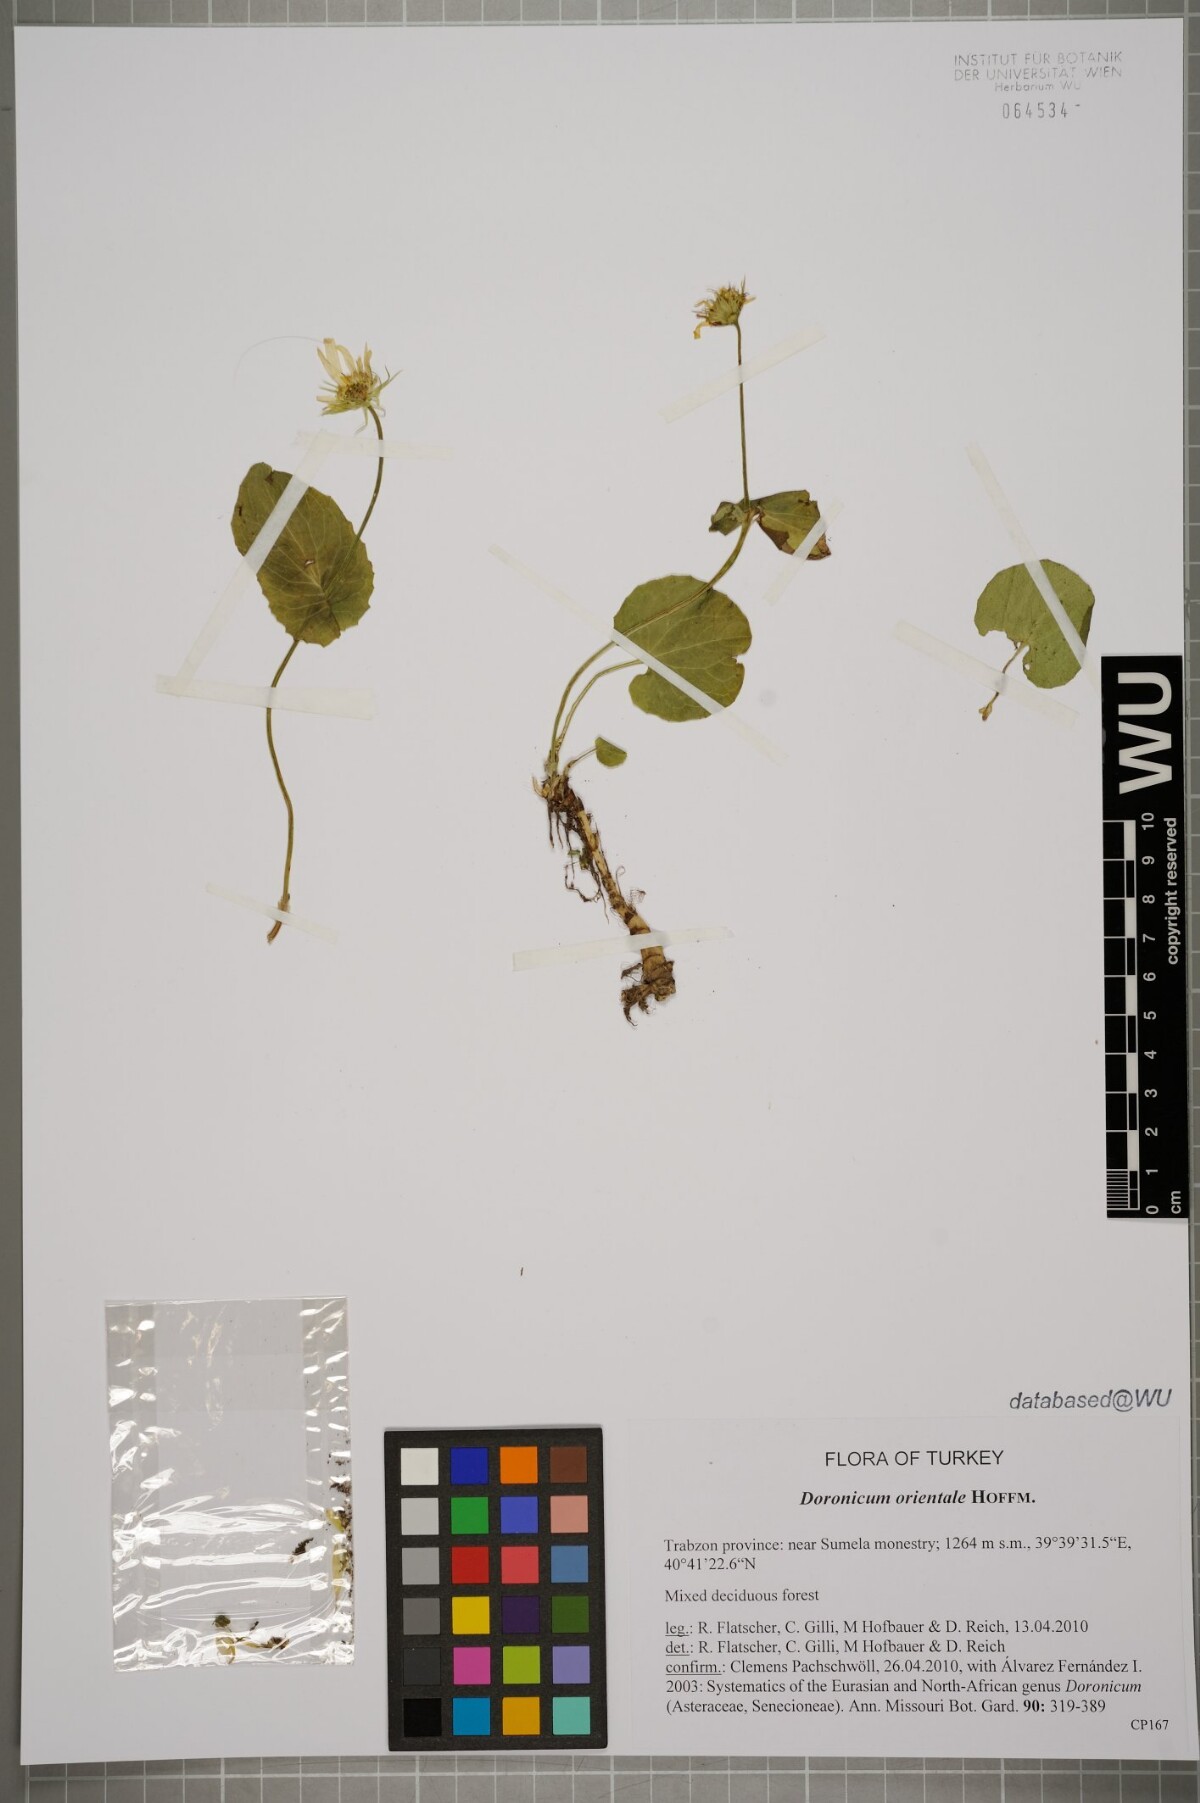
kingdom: Plantae
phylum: Tracheophyta
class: Magnoliopsida
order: Asterales
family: Asteraceae
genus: Doronicum
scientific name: Doronicum orientale
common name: Oriental leopard's-bane
